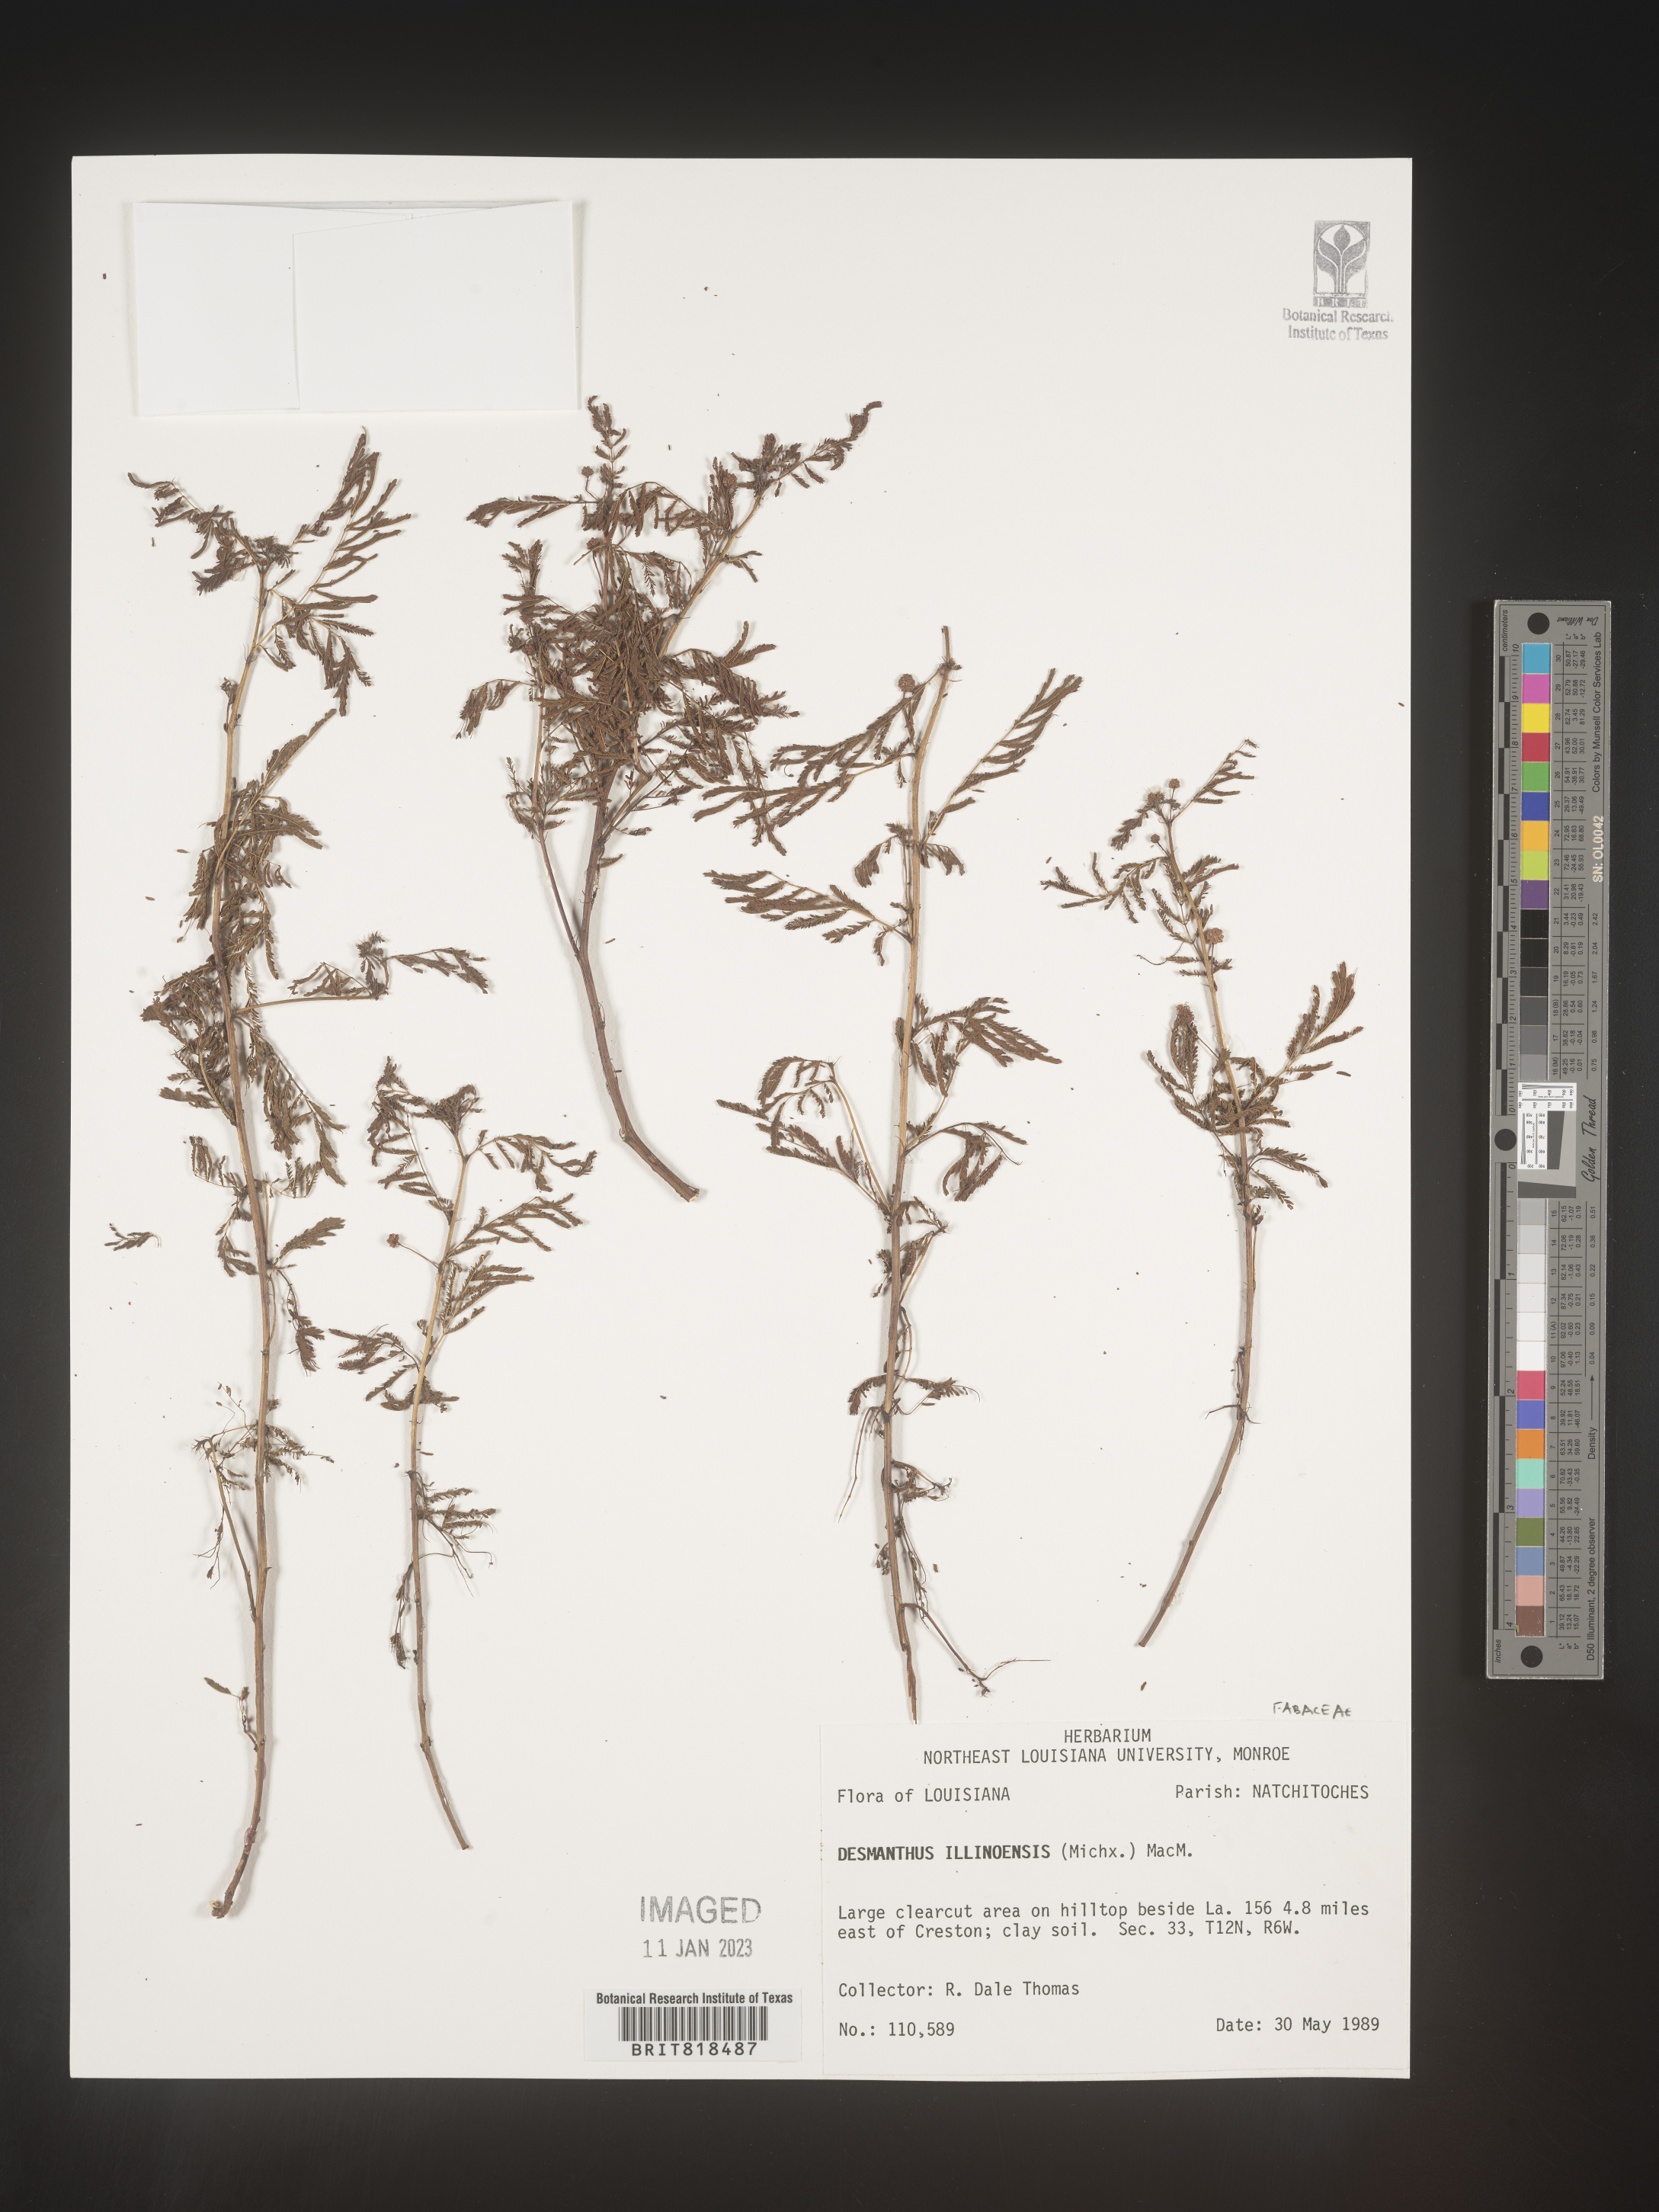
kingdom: Plantae
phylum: Tracheophyta
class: Magnoliopsida
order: Fabales
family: Fabaceae
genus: Desmanthus
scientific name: Desmanthus illinoensis
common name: Illinois bundle-flower
